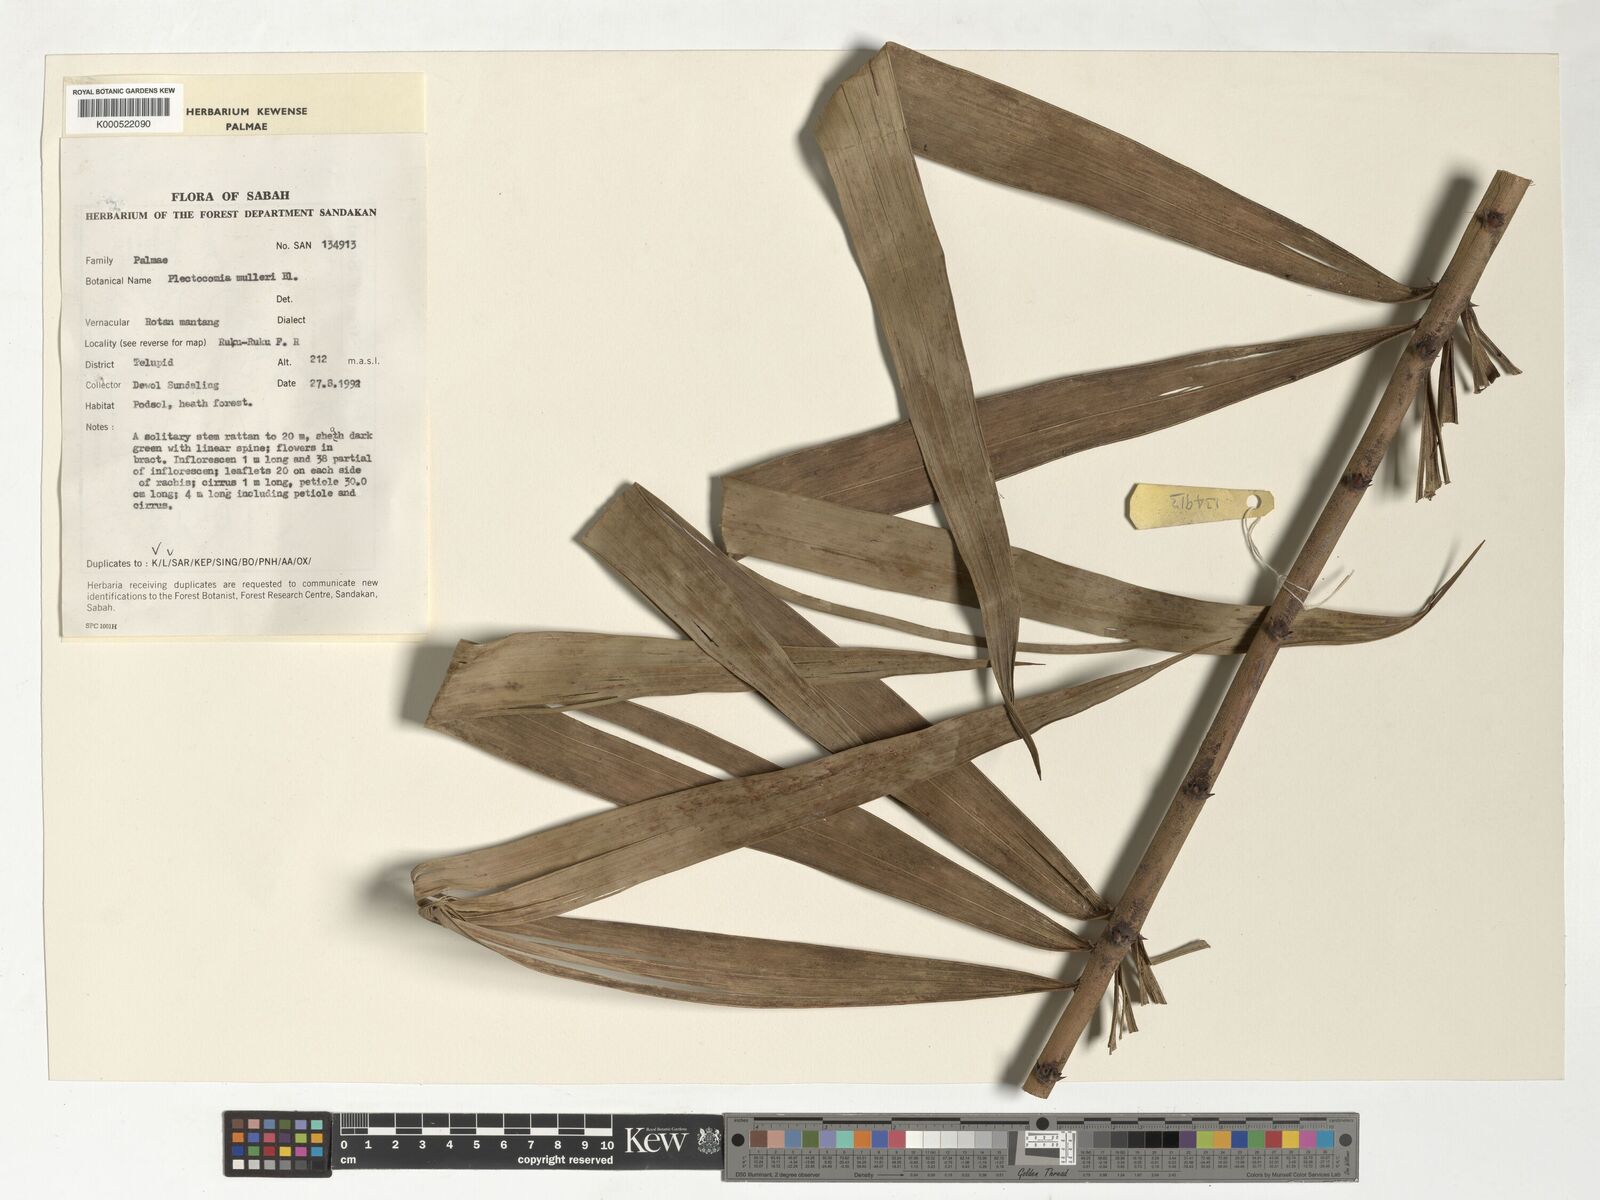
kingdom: Plantae
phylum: Tracheophyta
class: Liliopsida
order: Arecales
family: Arecaceae
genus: Plectocomia
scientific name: Plectocomia mulleri
